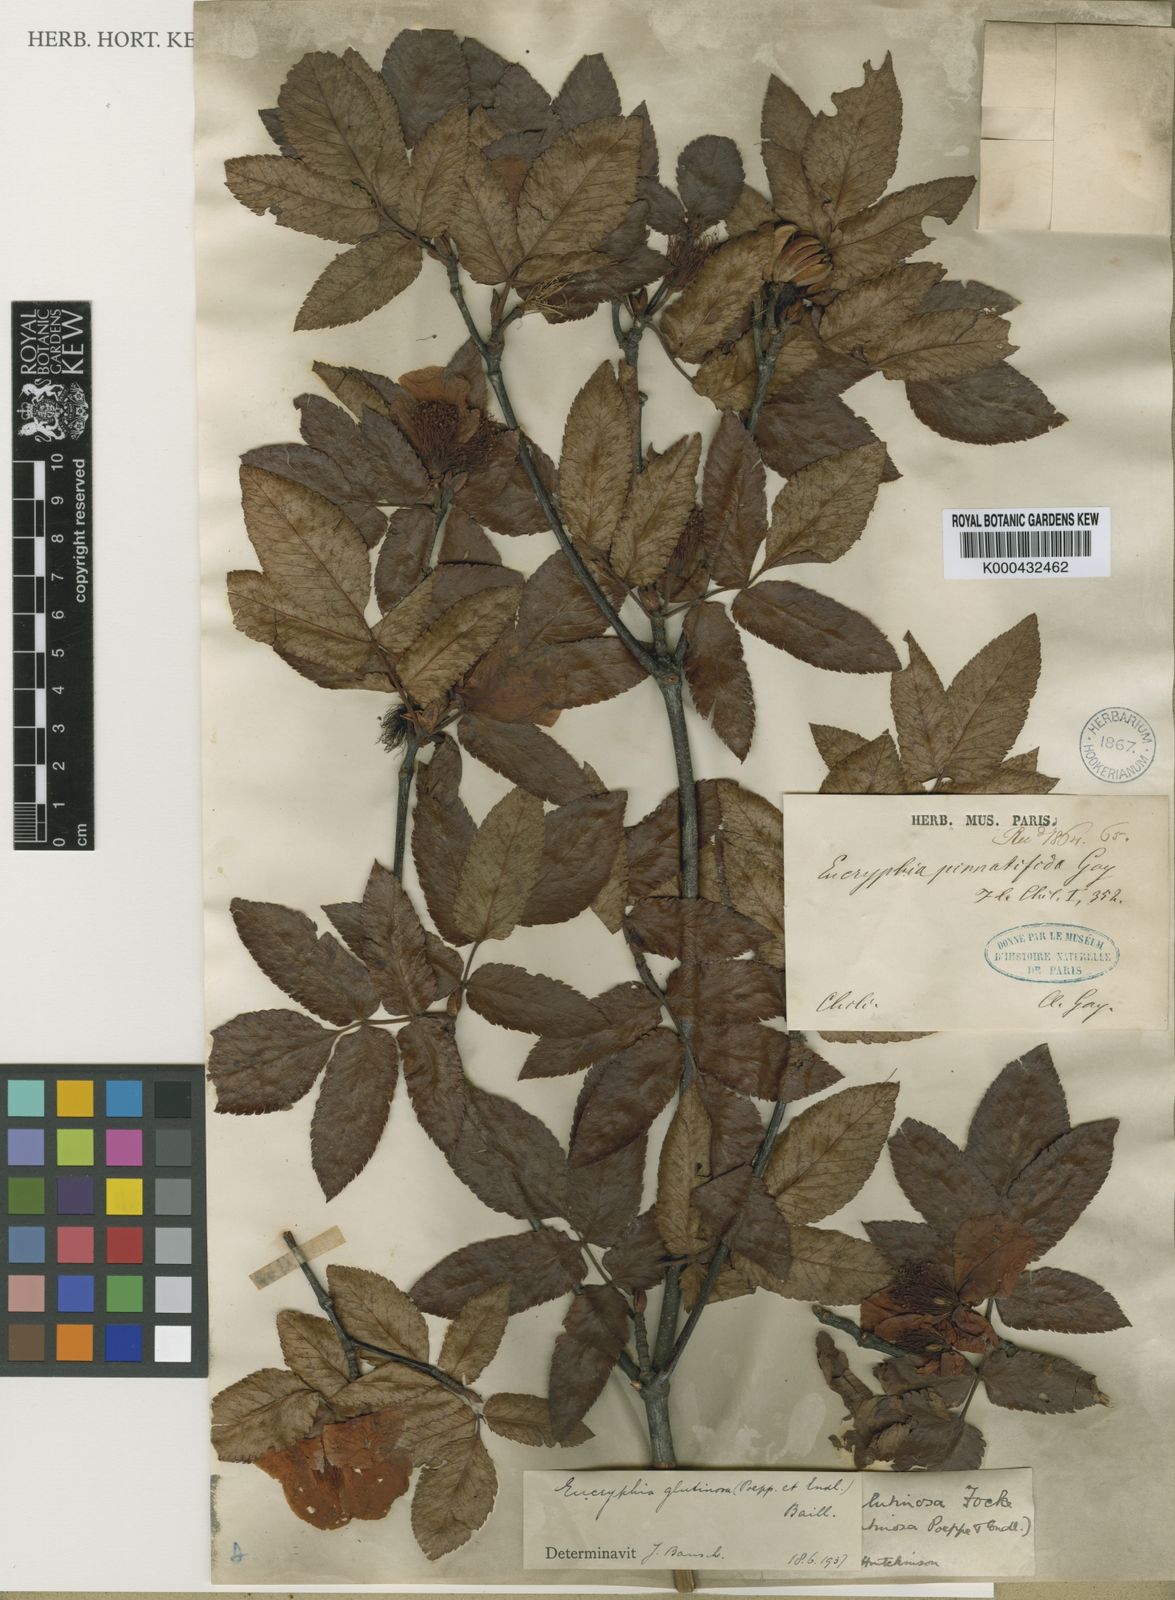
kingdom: Plantae
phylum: Tracheophyta
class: Magnoliopsida
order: Oxalidales
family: Cunoniaceae
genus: Eucryphia
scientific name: Eucryphia glutinosa
